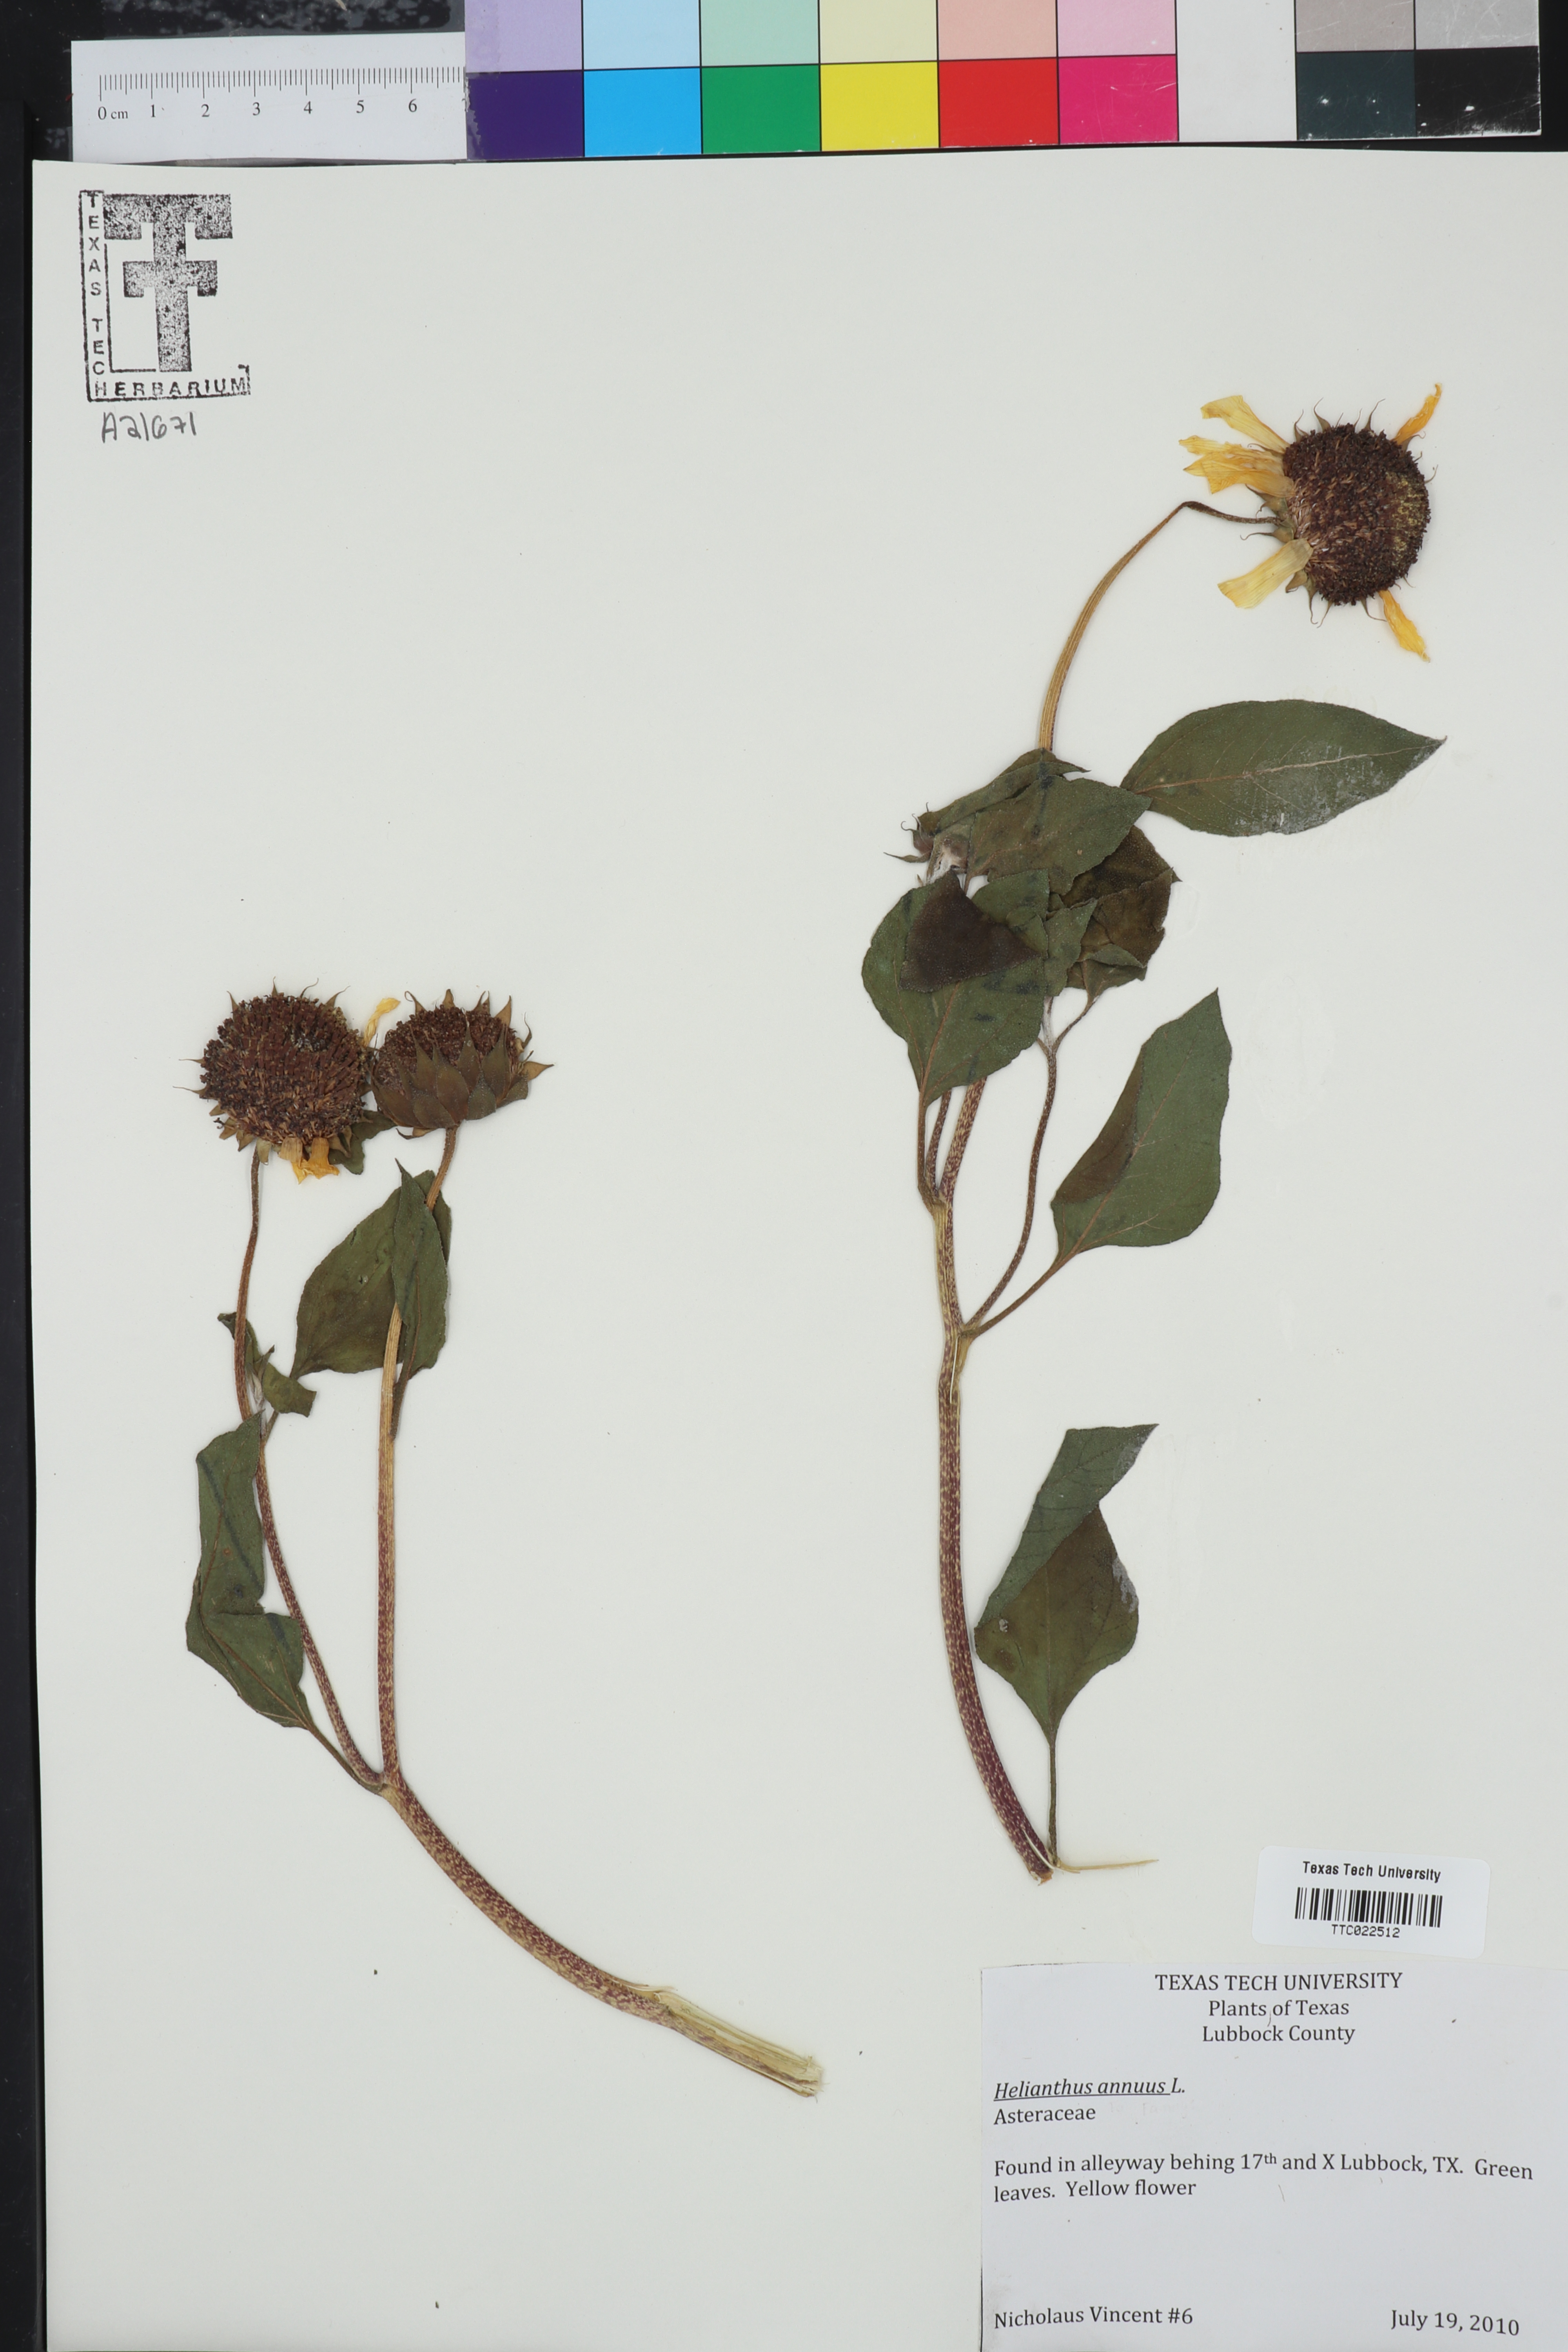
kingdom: Plantae
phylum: Tracheophyta
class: Magnoliopsida
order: Asterales
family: Asteraceae
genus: Helianthus
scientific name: Helianthus annuus
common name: Sunflower
